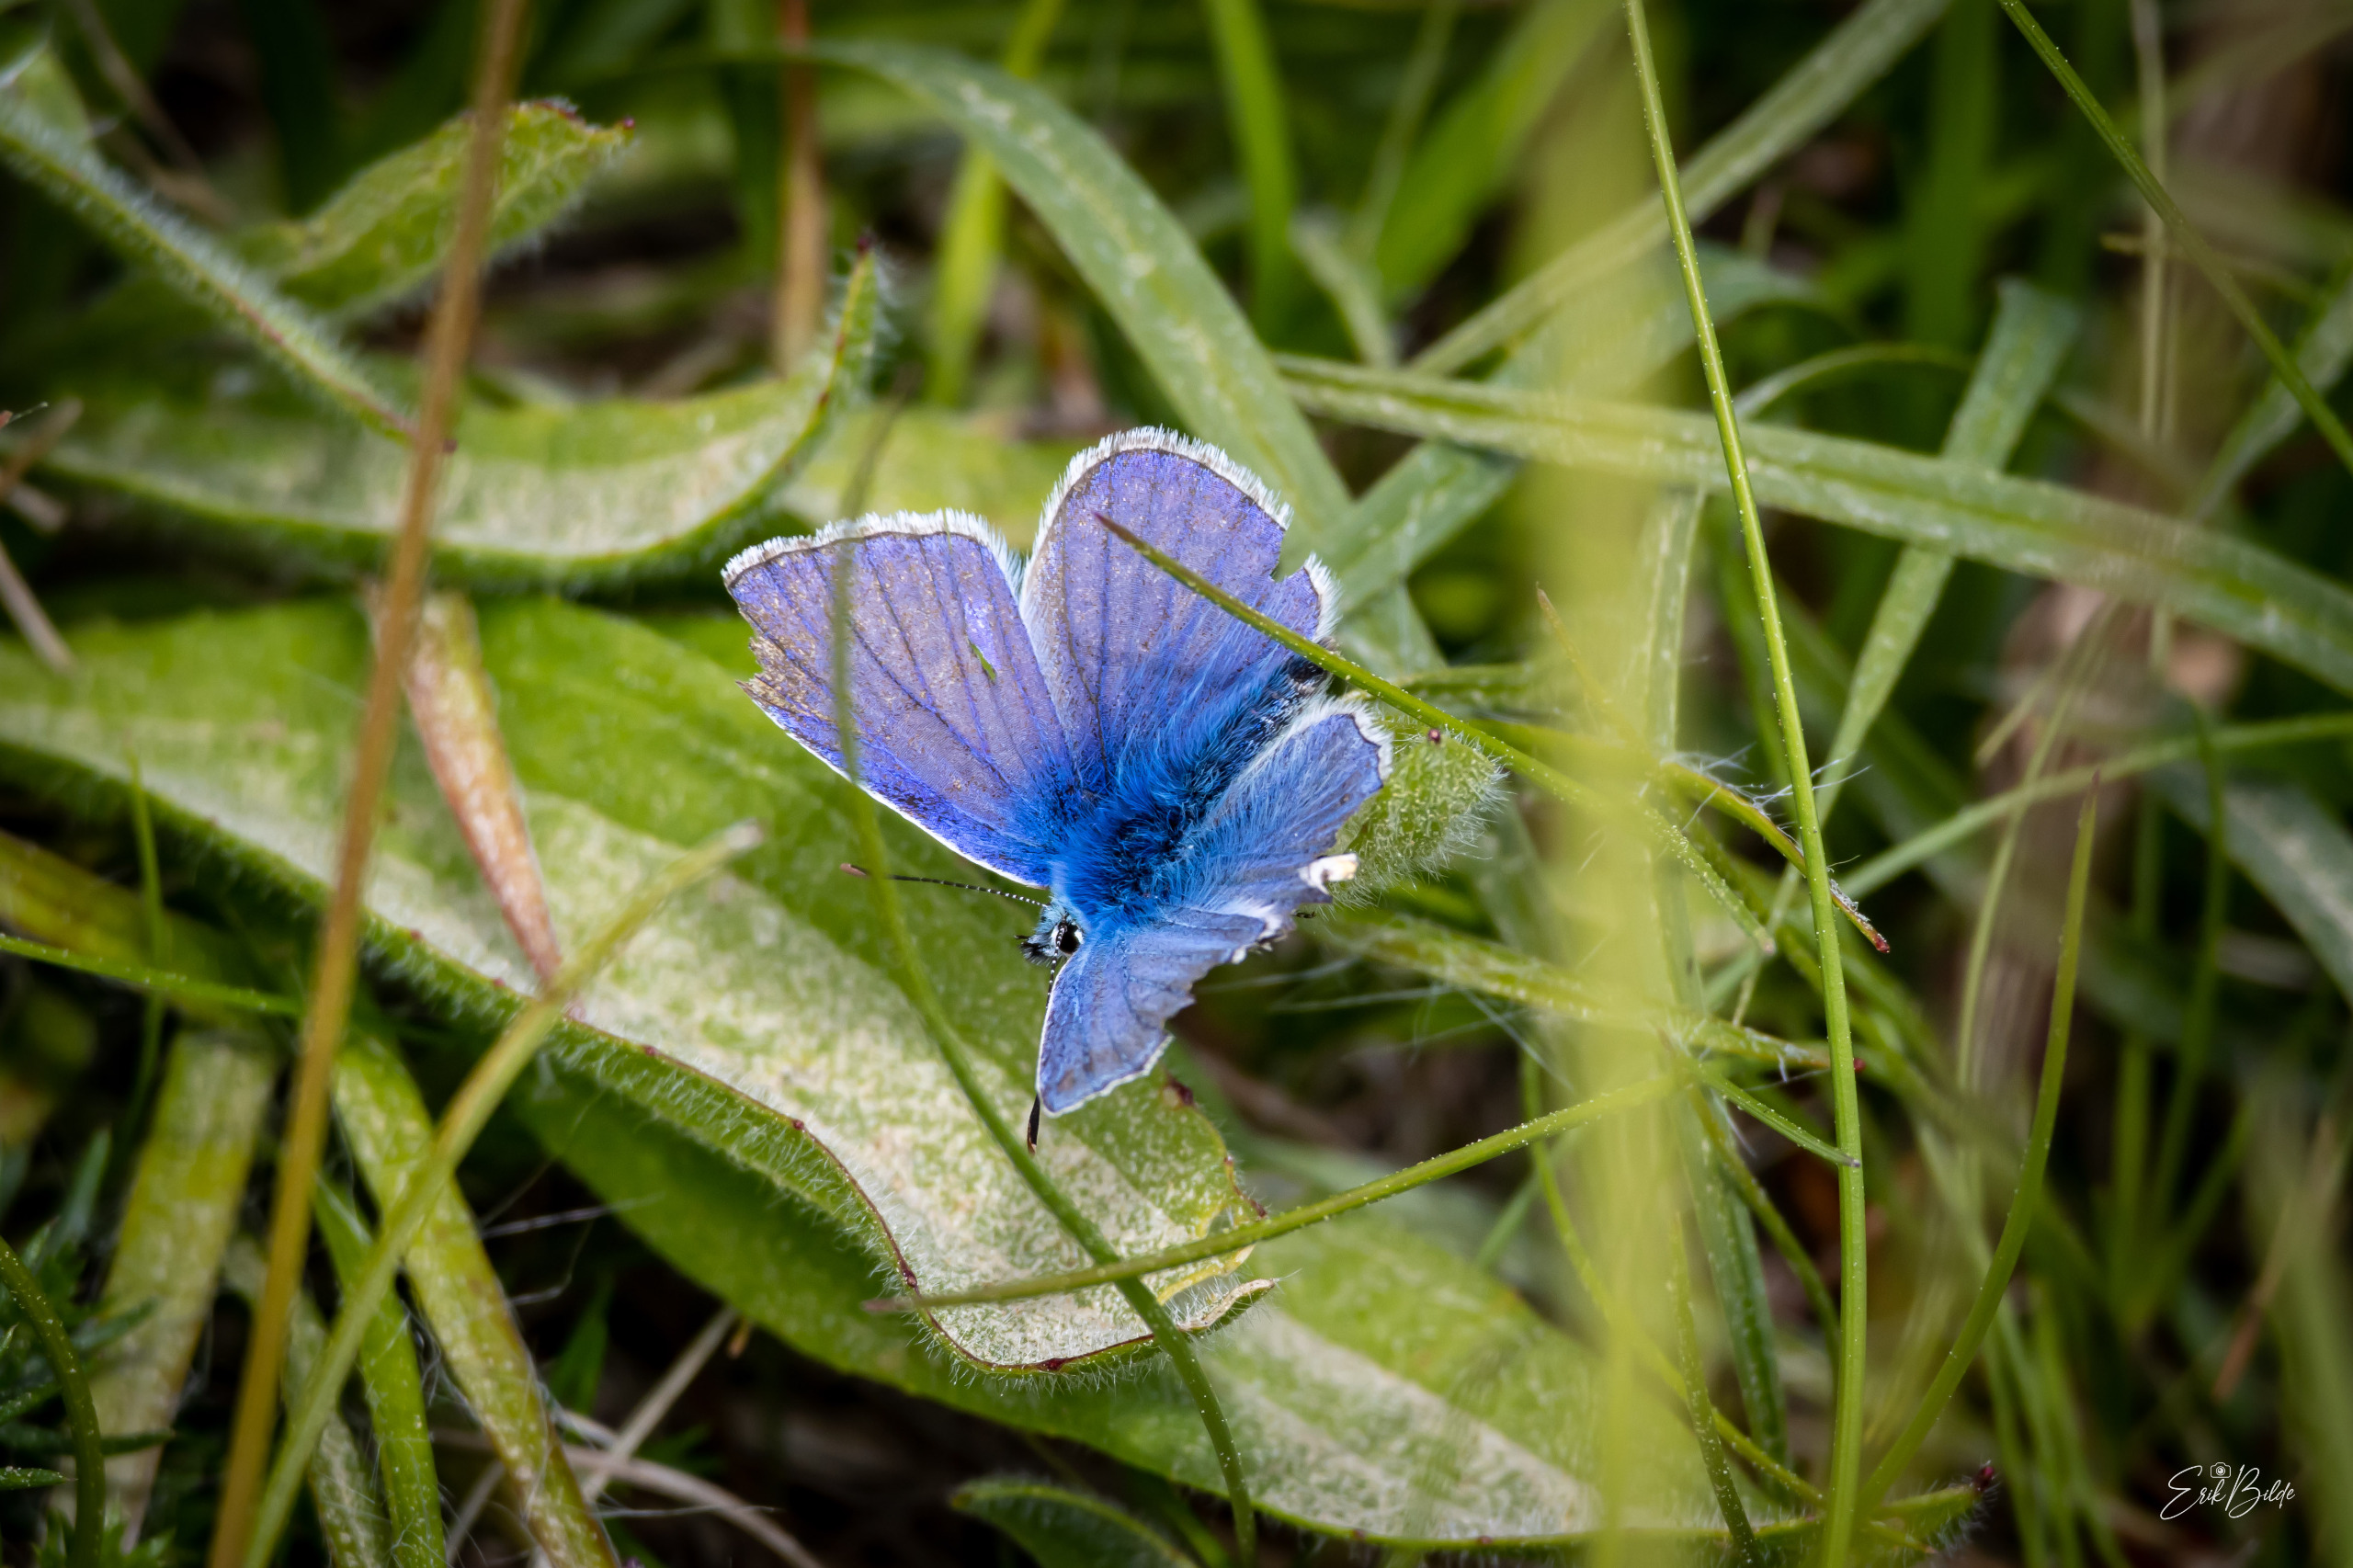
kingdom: Animalia
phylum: Arthropoda
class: Insecta
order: Lepidoptera
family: Lycaenidae
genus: Polyommatus
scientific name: Polyommatus icarus
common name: Almindelig blåfugl
